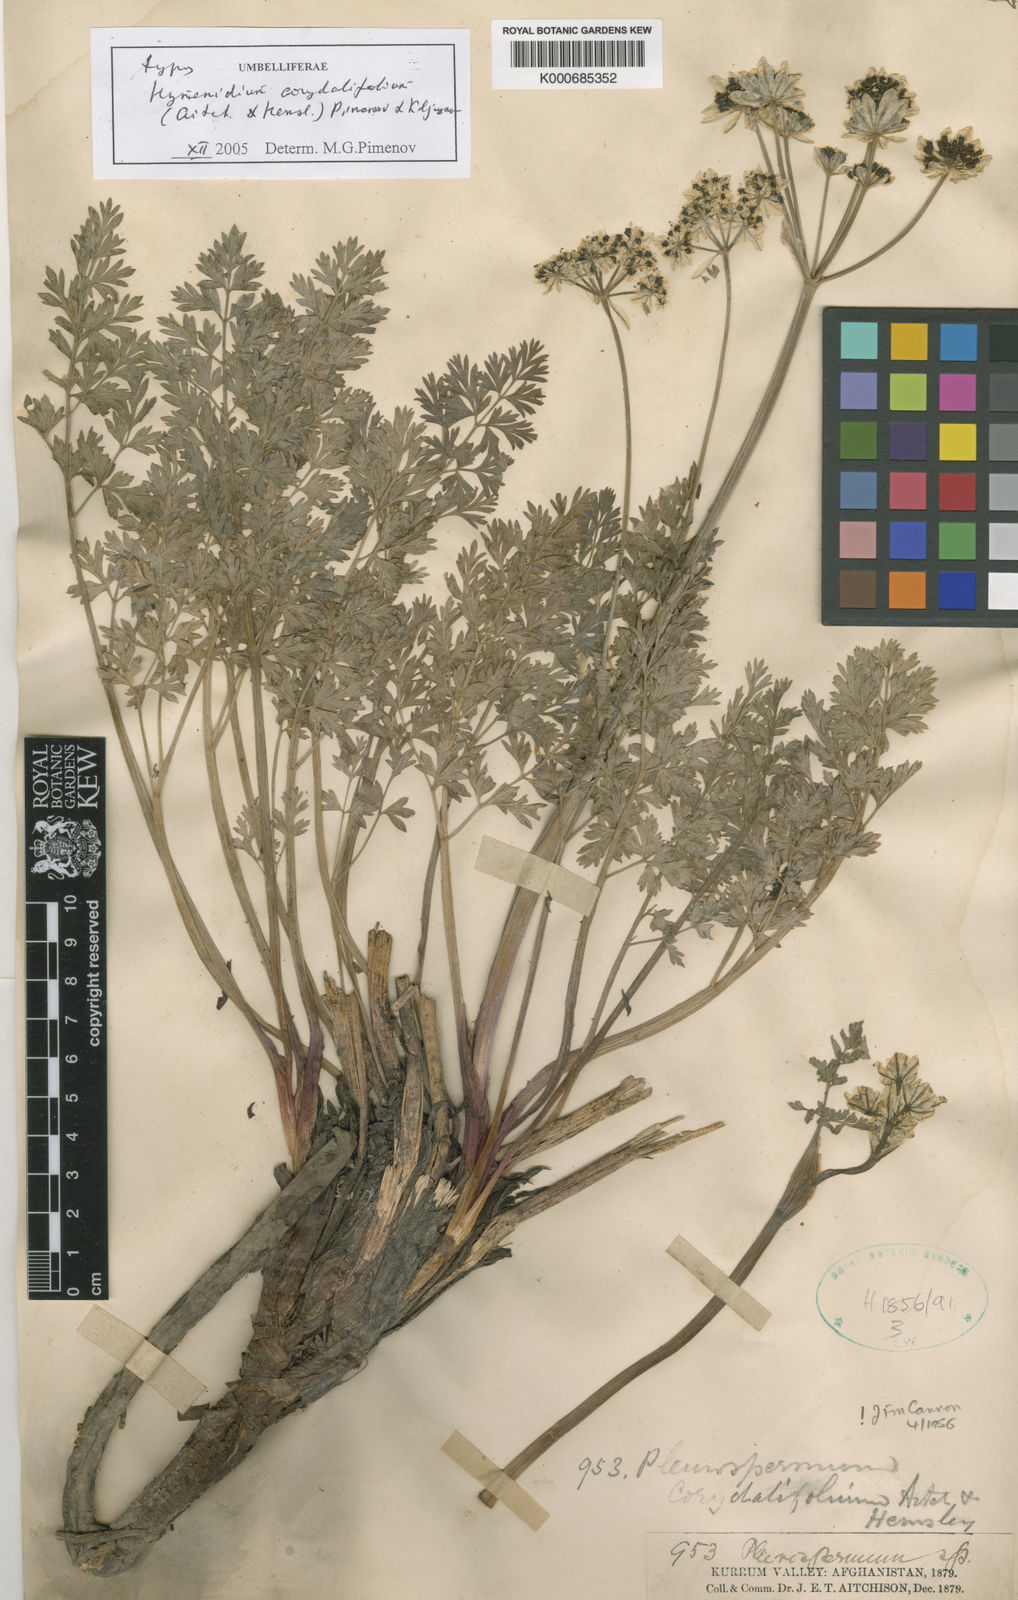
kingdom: Plantae
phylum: Tracheophyta
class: Magnoliopsida
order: Apiales
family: Apiaceae
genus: Hymenidium
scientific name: Hymenidium corydalifolium
